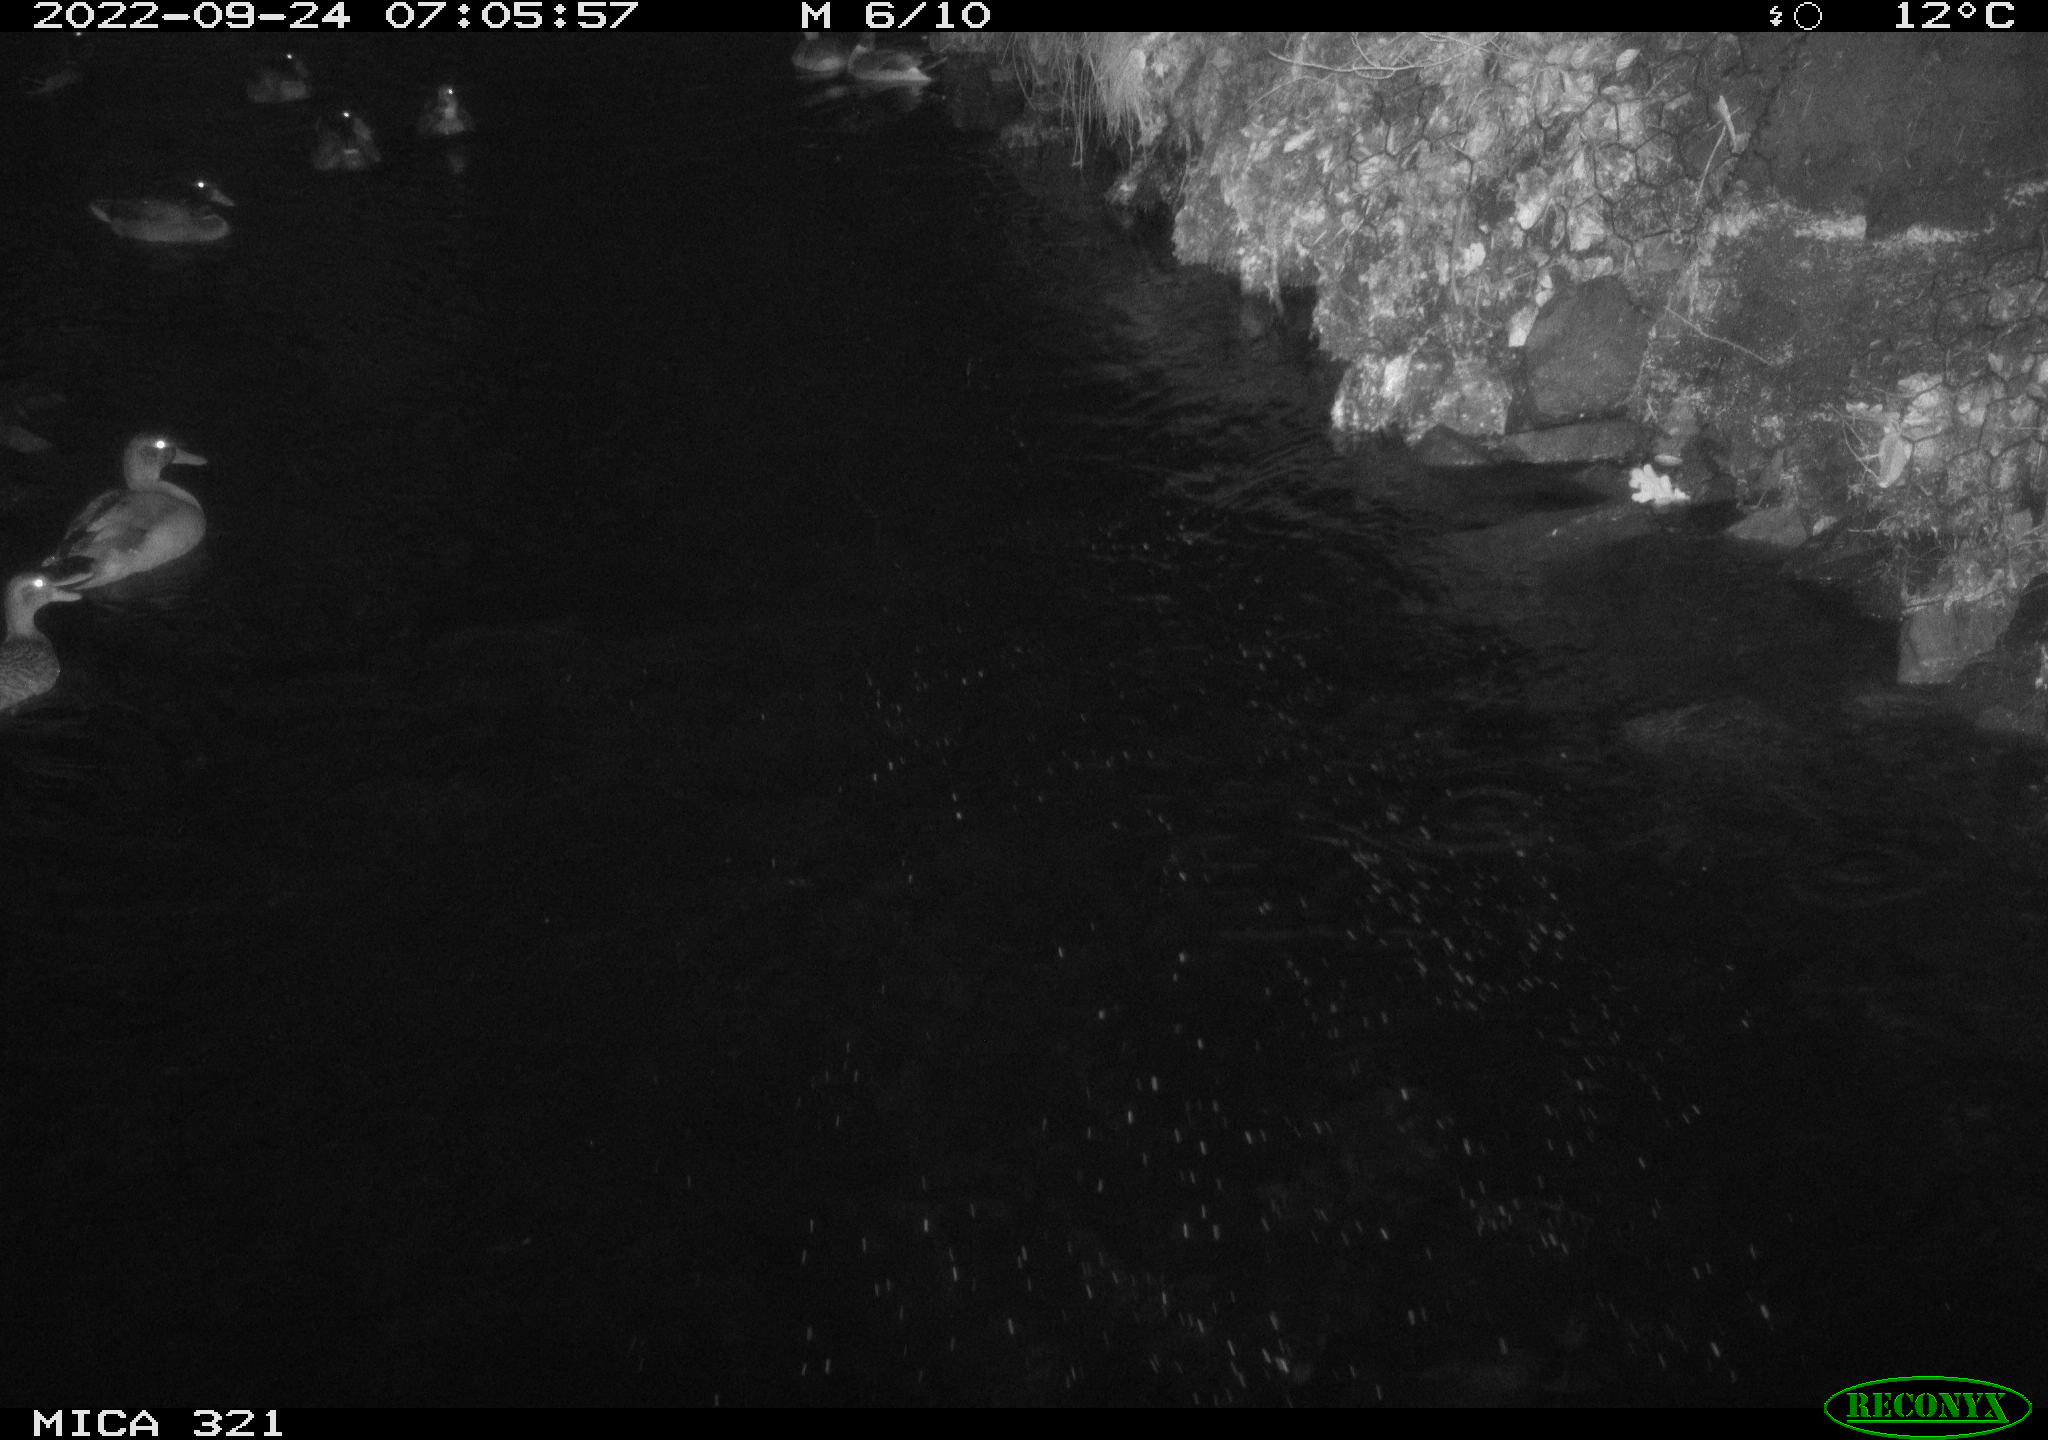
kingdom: Animalia
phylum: Chordata
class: Aves
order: Anseriformes
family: Anatidae
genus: Anas
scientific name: Anas
